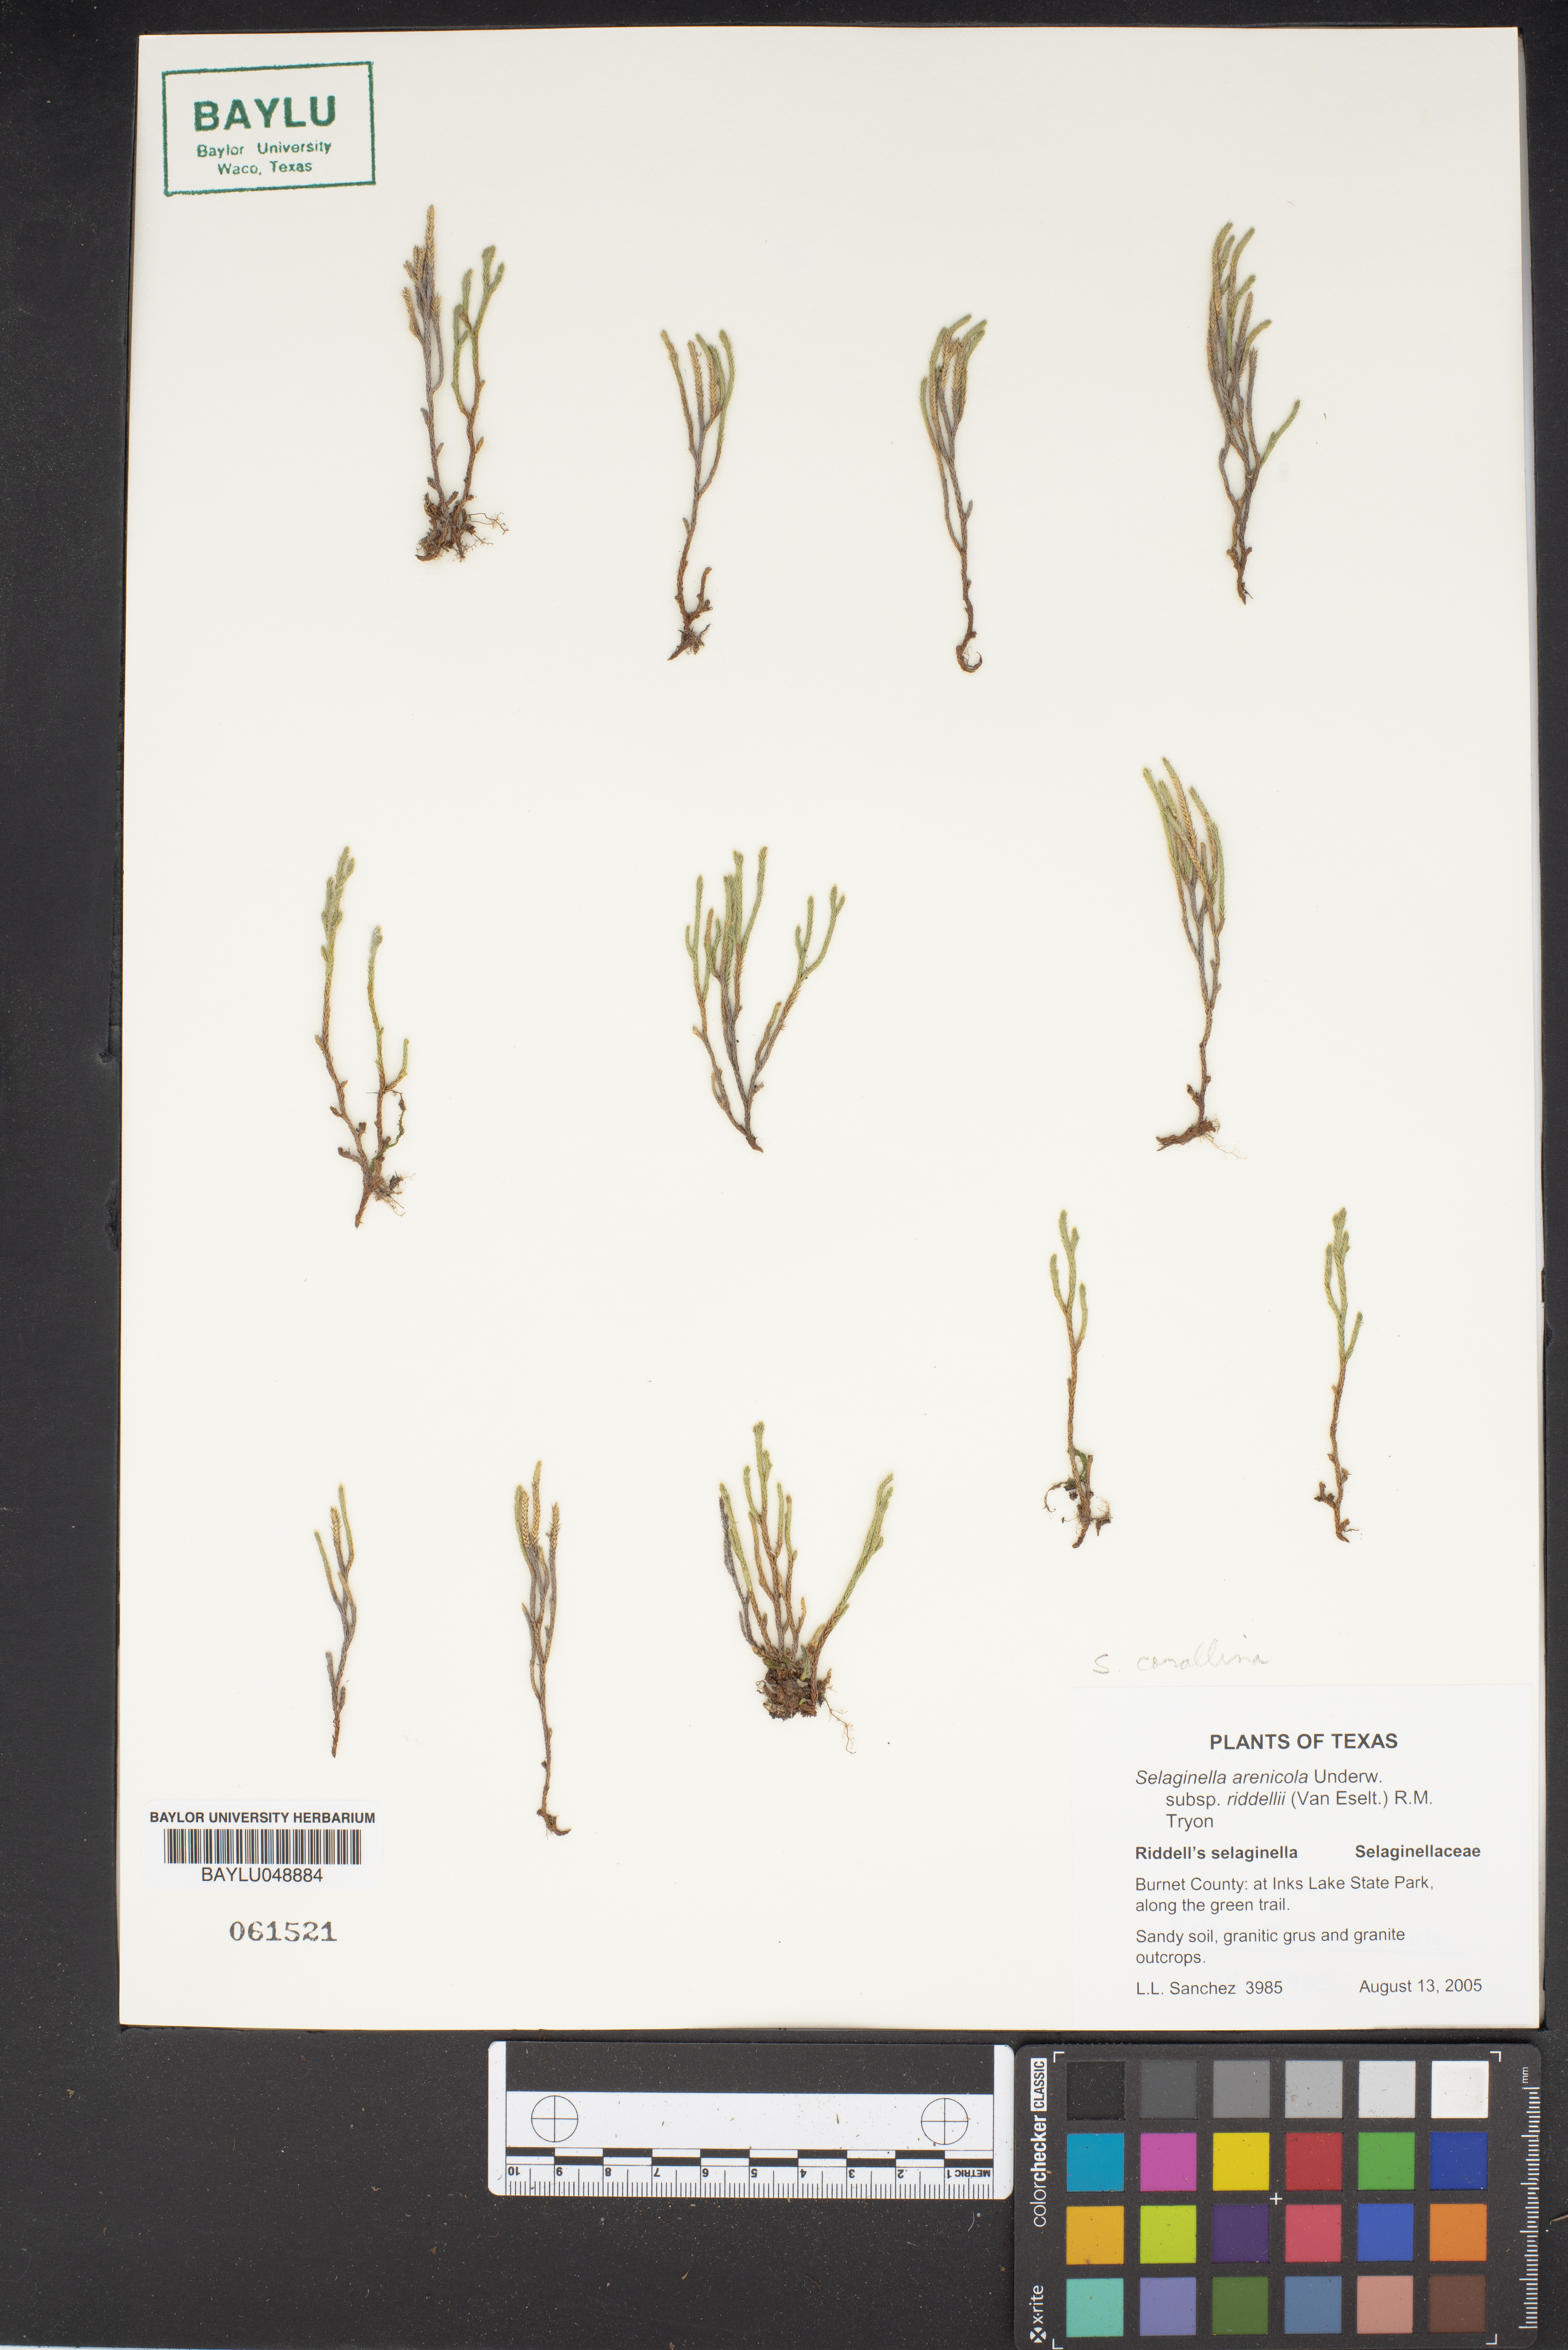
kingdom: Plantae
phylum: Tracheophyta
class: Lycopodiopsida
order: Selaginellales
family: Selaginellaceae
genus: Selaginella
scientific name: Selaginella arenicola
